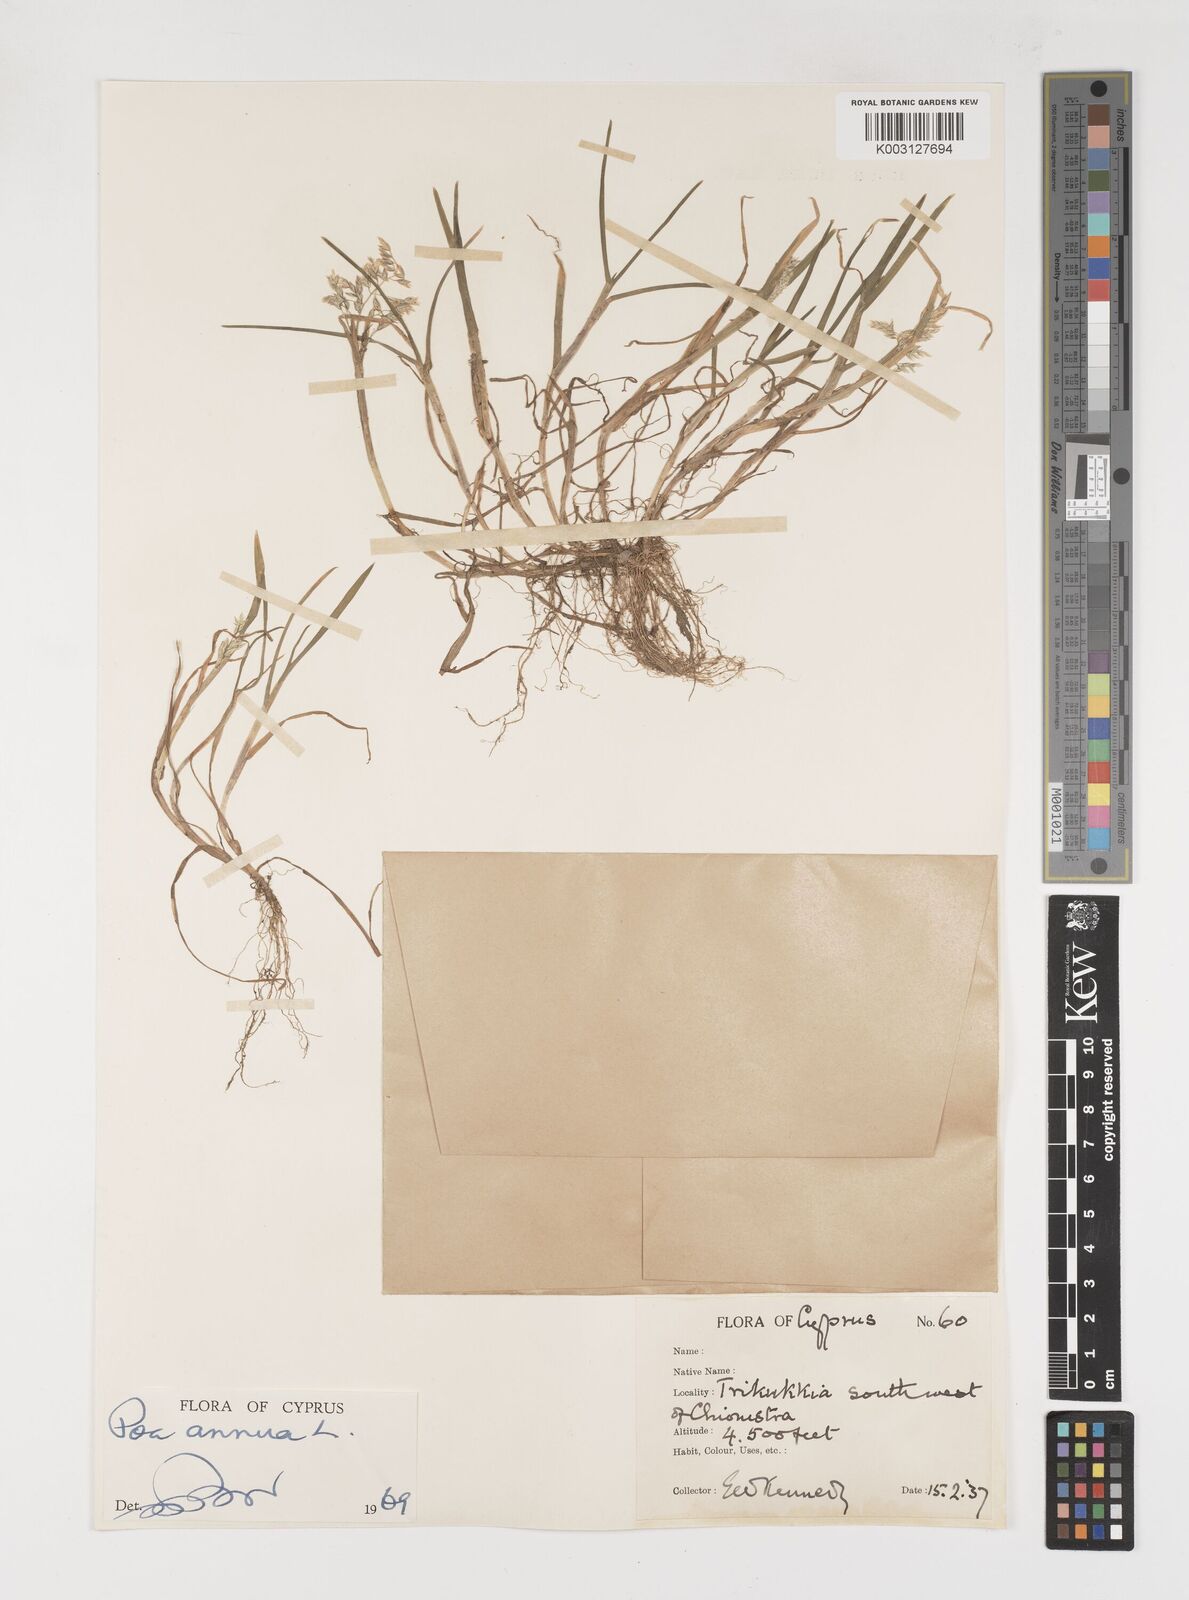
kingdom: Plantae
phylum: Tracheophyta
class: Liliopsida
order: Poales
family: Poaceae
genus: Poa
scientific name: Poa annua
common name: Annual bluegrass
